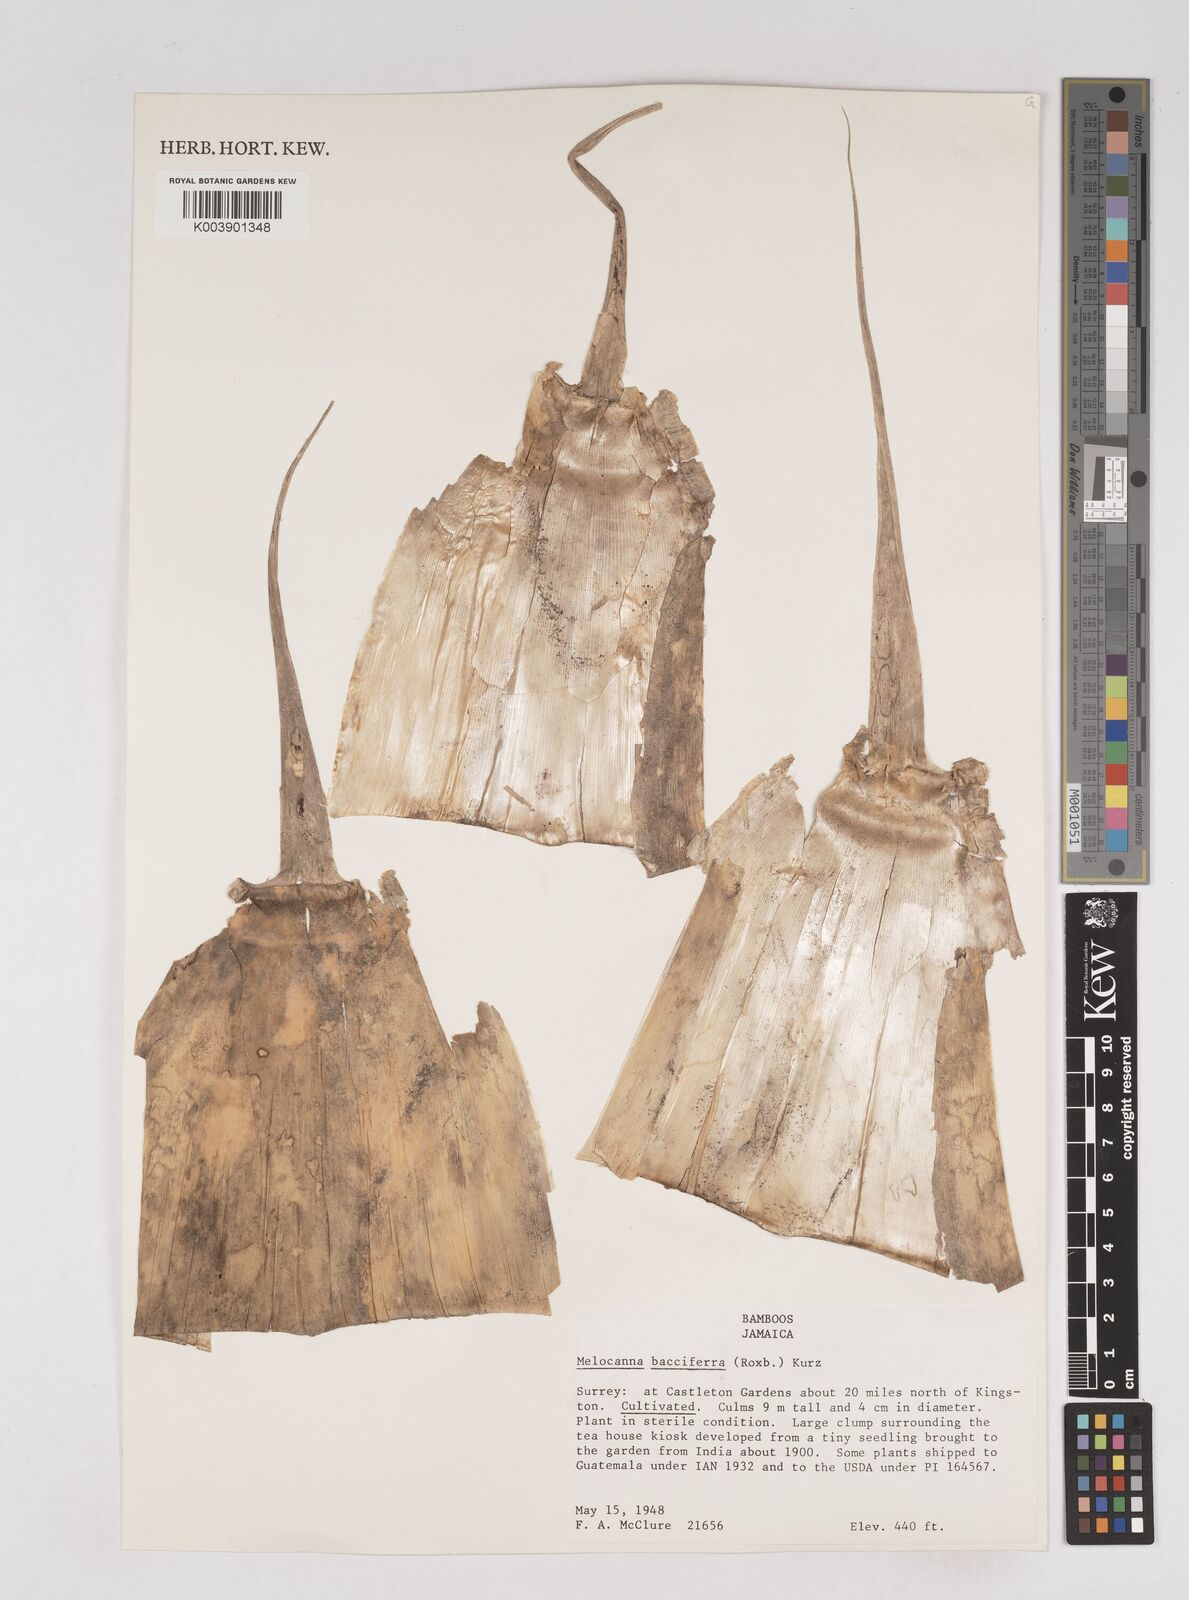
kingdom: Plantae
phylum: Tracheophyta
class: Liliopsida
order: Poales
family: Poaceae
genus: Melocanna
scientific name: Melocanna baccifera
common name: Berry bamboo
